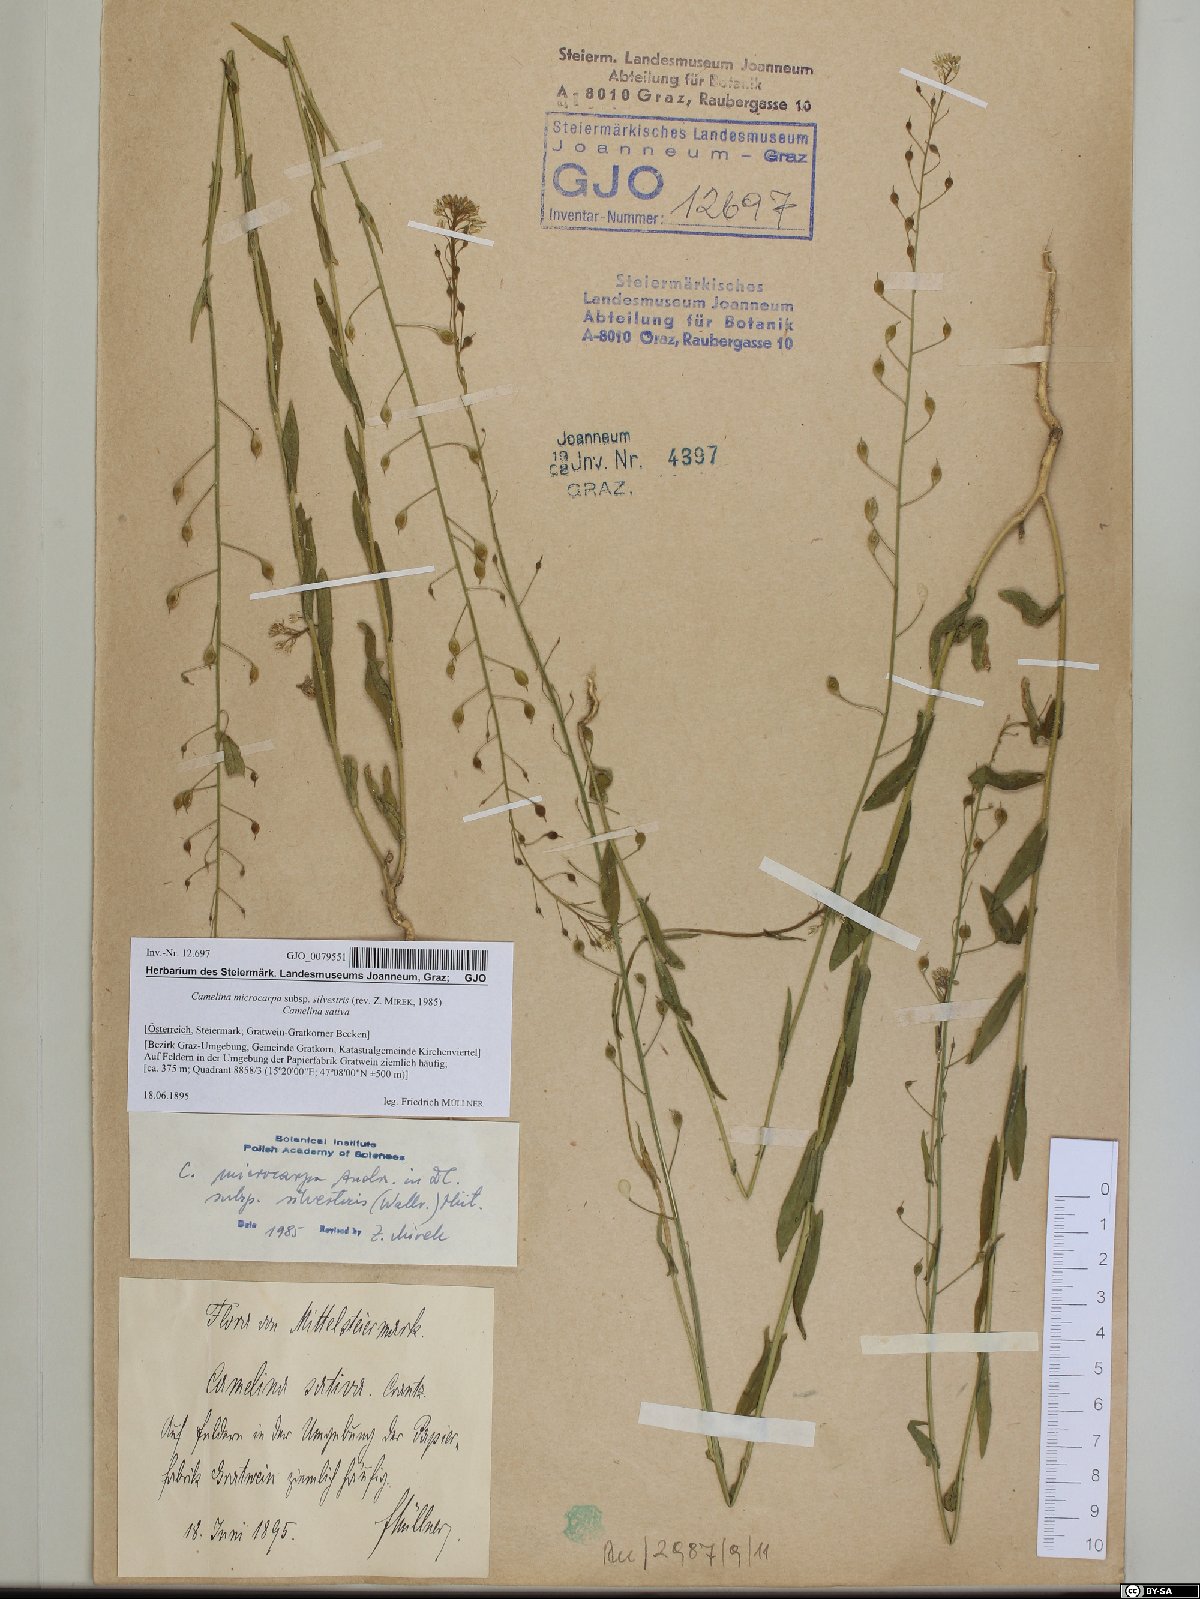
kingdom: Plantae
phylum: Tracheophyta
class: Magnoliopsida
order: Brassicales
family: Brassicaceae
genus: Camelina
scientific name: Camelina microcarpa
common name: Lesser gold-of-pleasure
